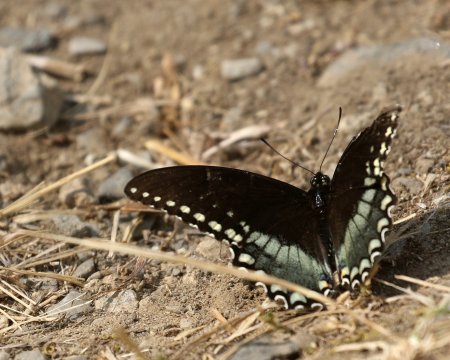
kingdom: Animalia
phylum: Arthropoda
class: Insecta
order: Lepidoptera
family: Papilionidae
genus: Pterourus
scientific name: Pterourus troilus
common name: Spicebush Swallowtail
